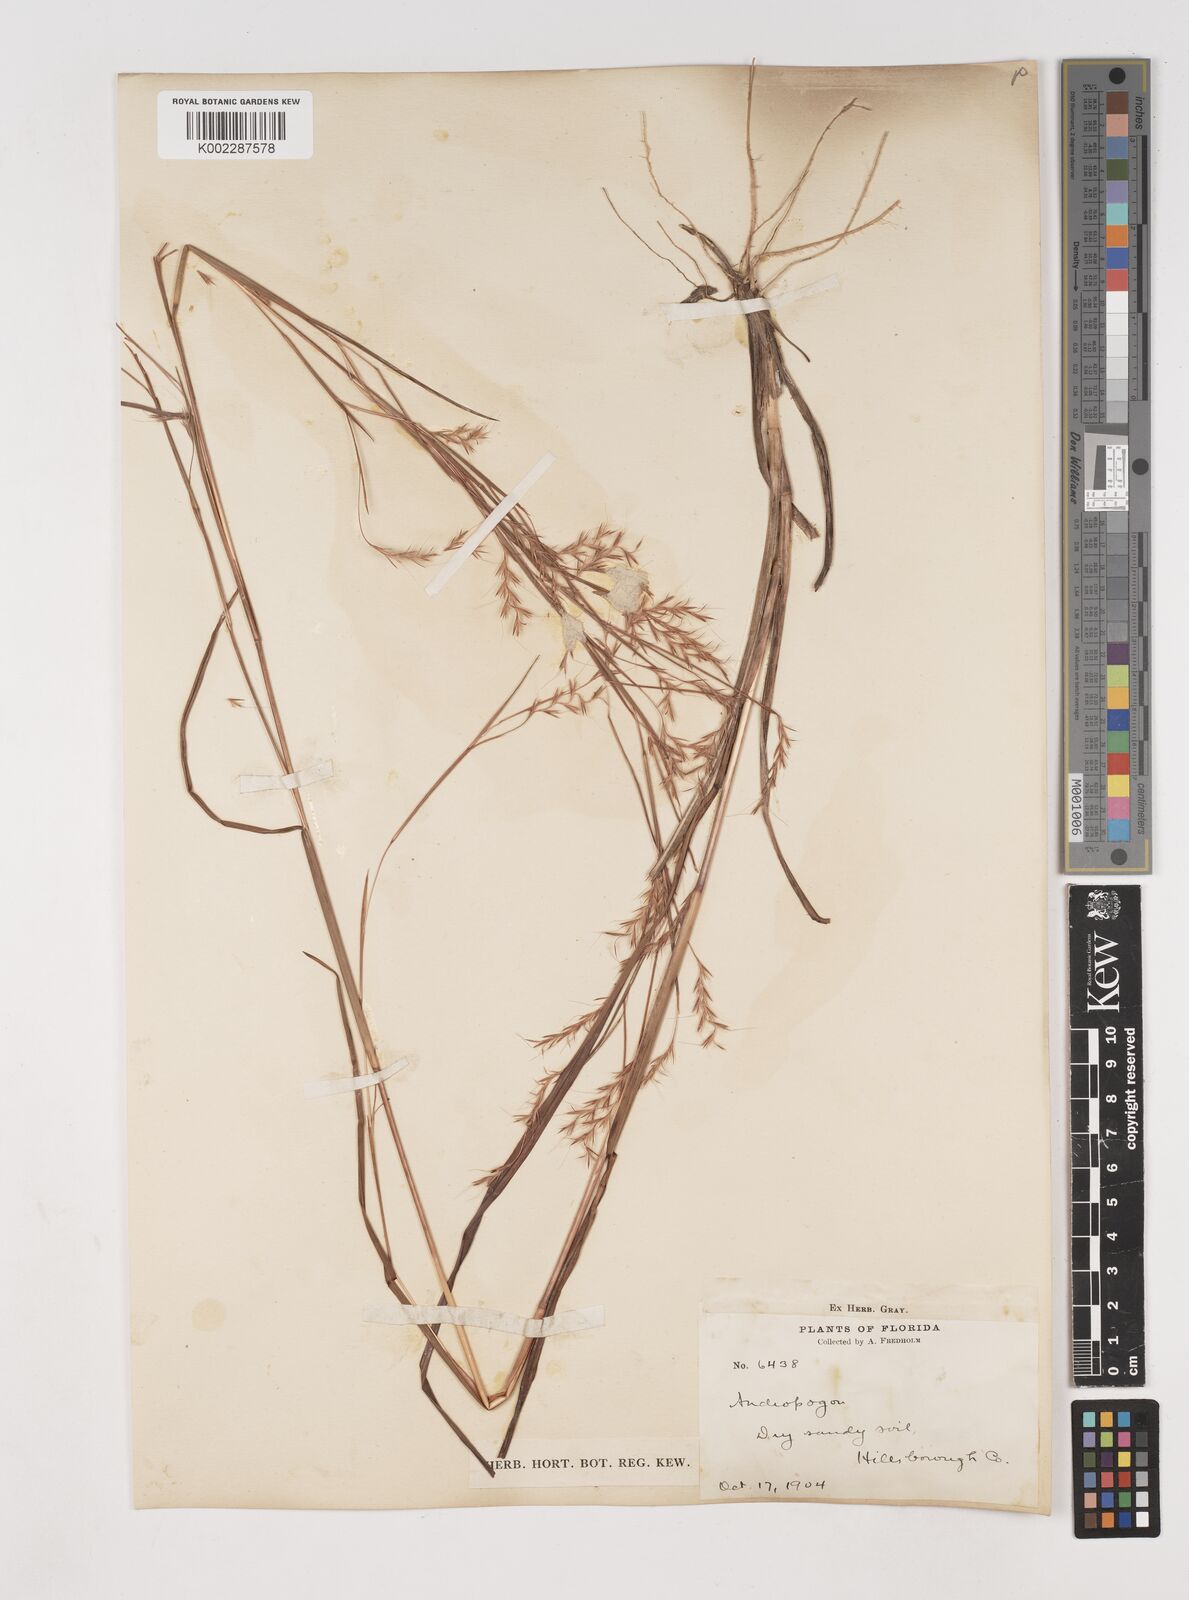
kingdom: Plantae
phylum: Tracheophyta
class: Liliopsida
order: Poales
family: Poaceae
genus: Schizachyrium
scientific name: Schizachyrium scoparium
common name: Little bluestem
